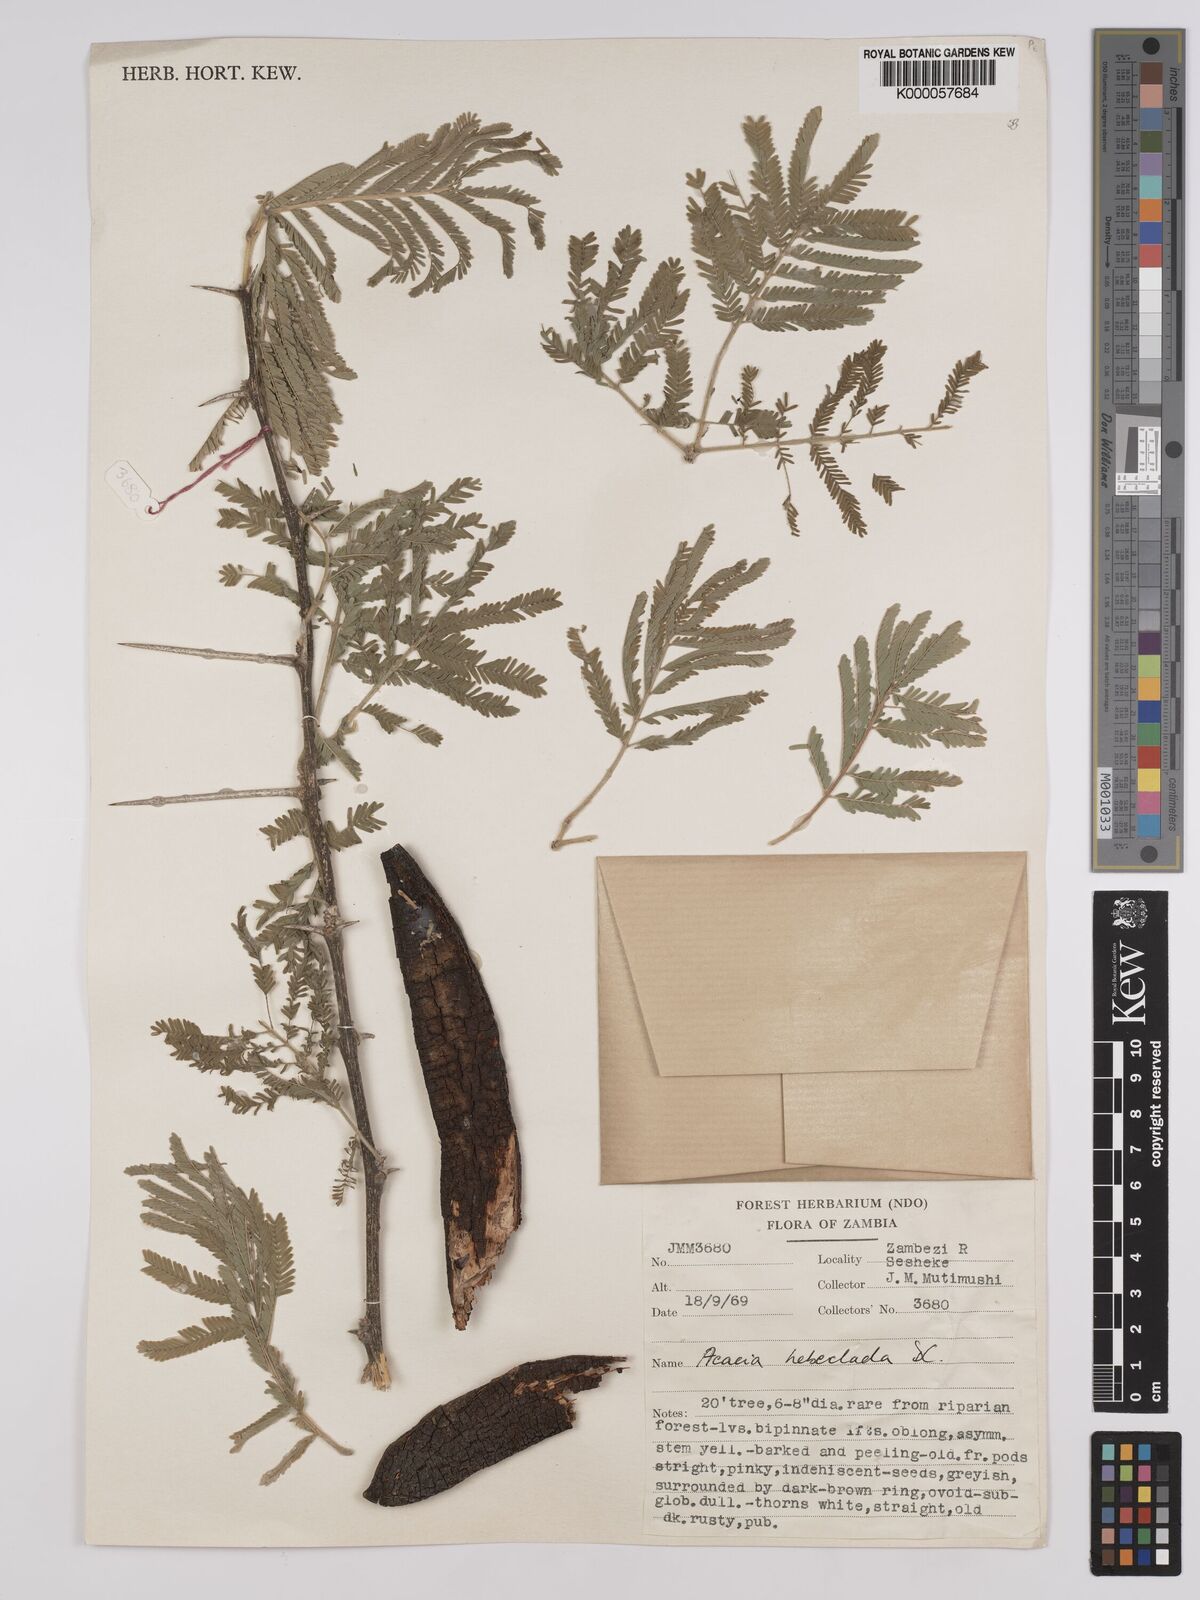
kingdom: Plantae
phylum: Tracheophyta
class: Magnoliopsida
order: Fabales
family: Fabaceae
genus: Vachellia
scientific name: Vachellia hebeclada
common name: Candle thorn
